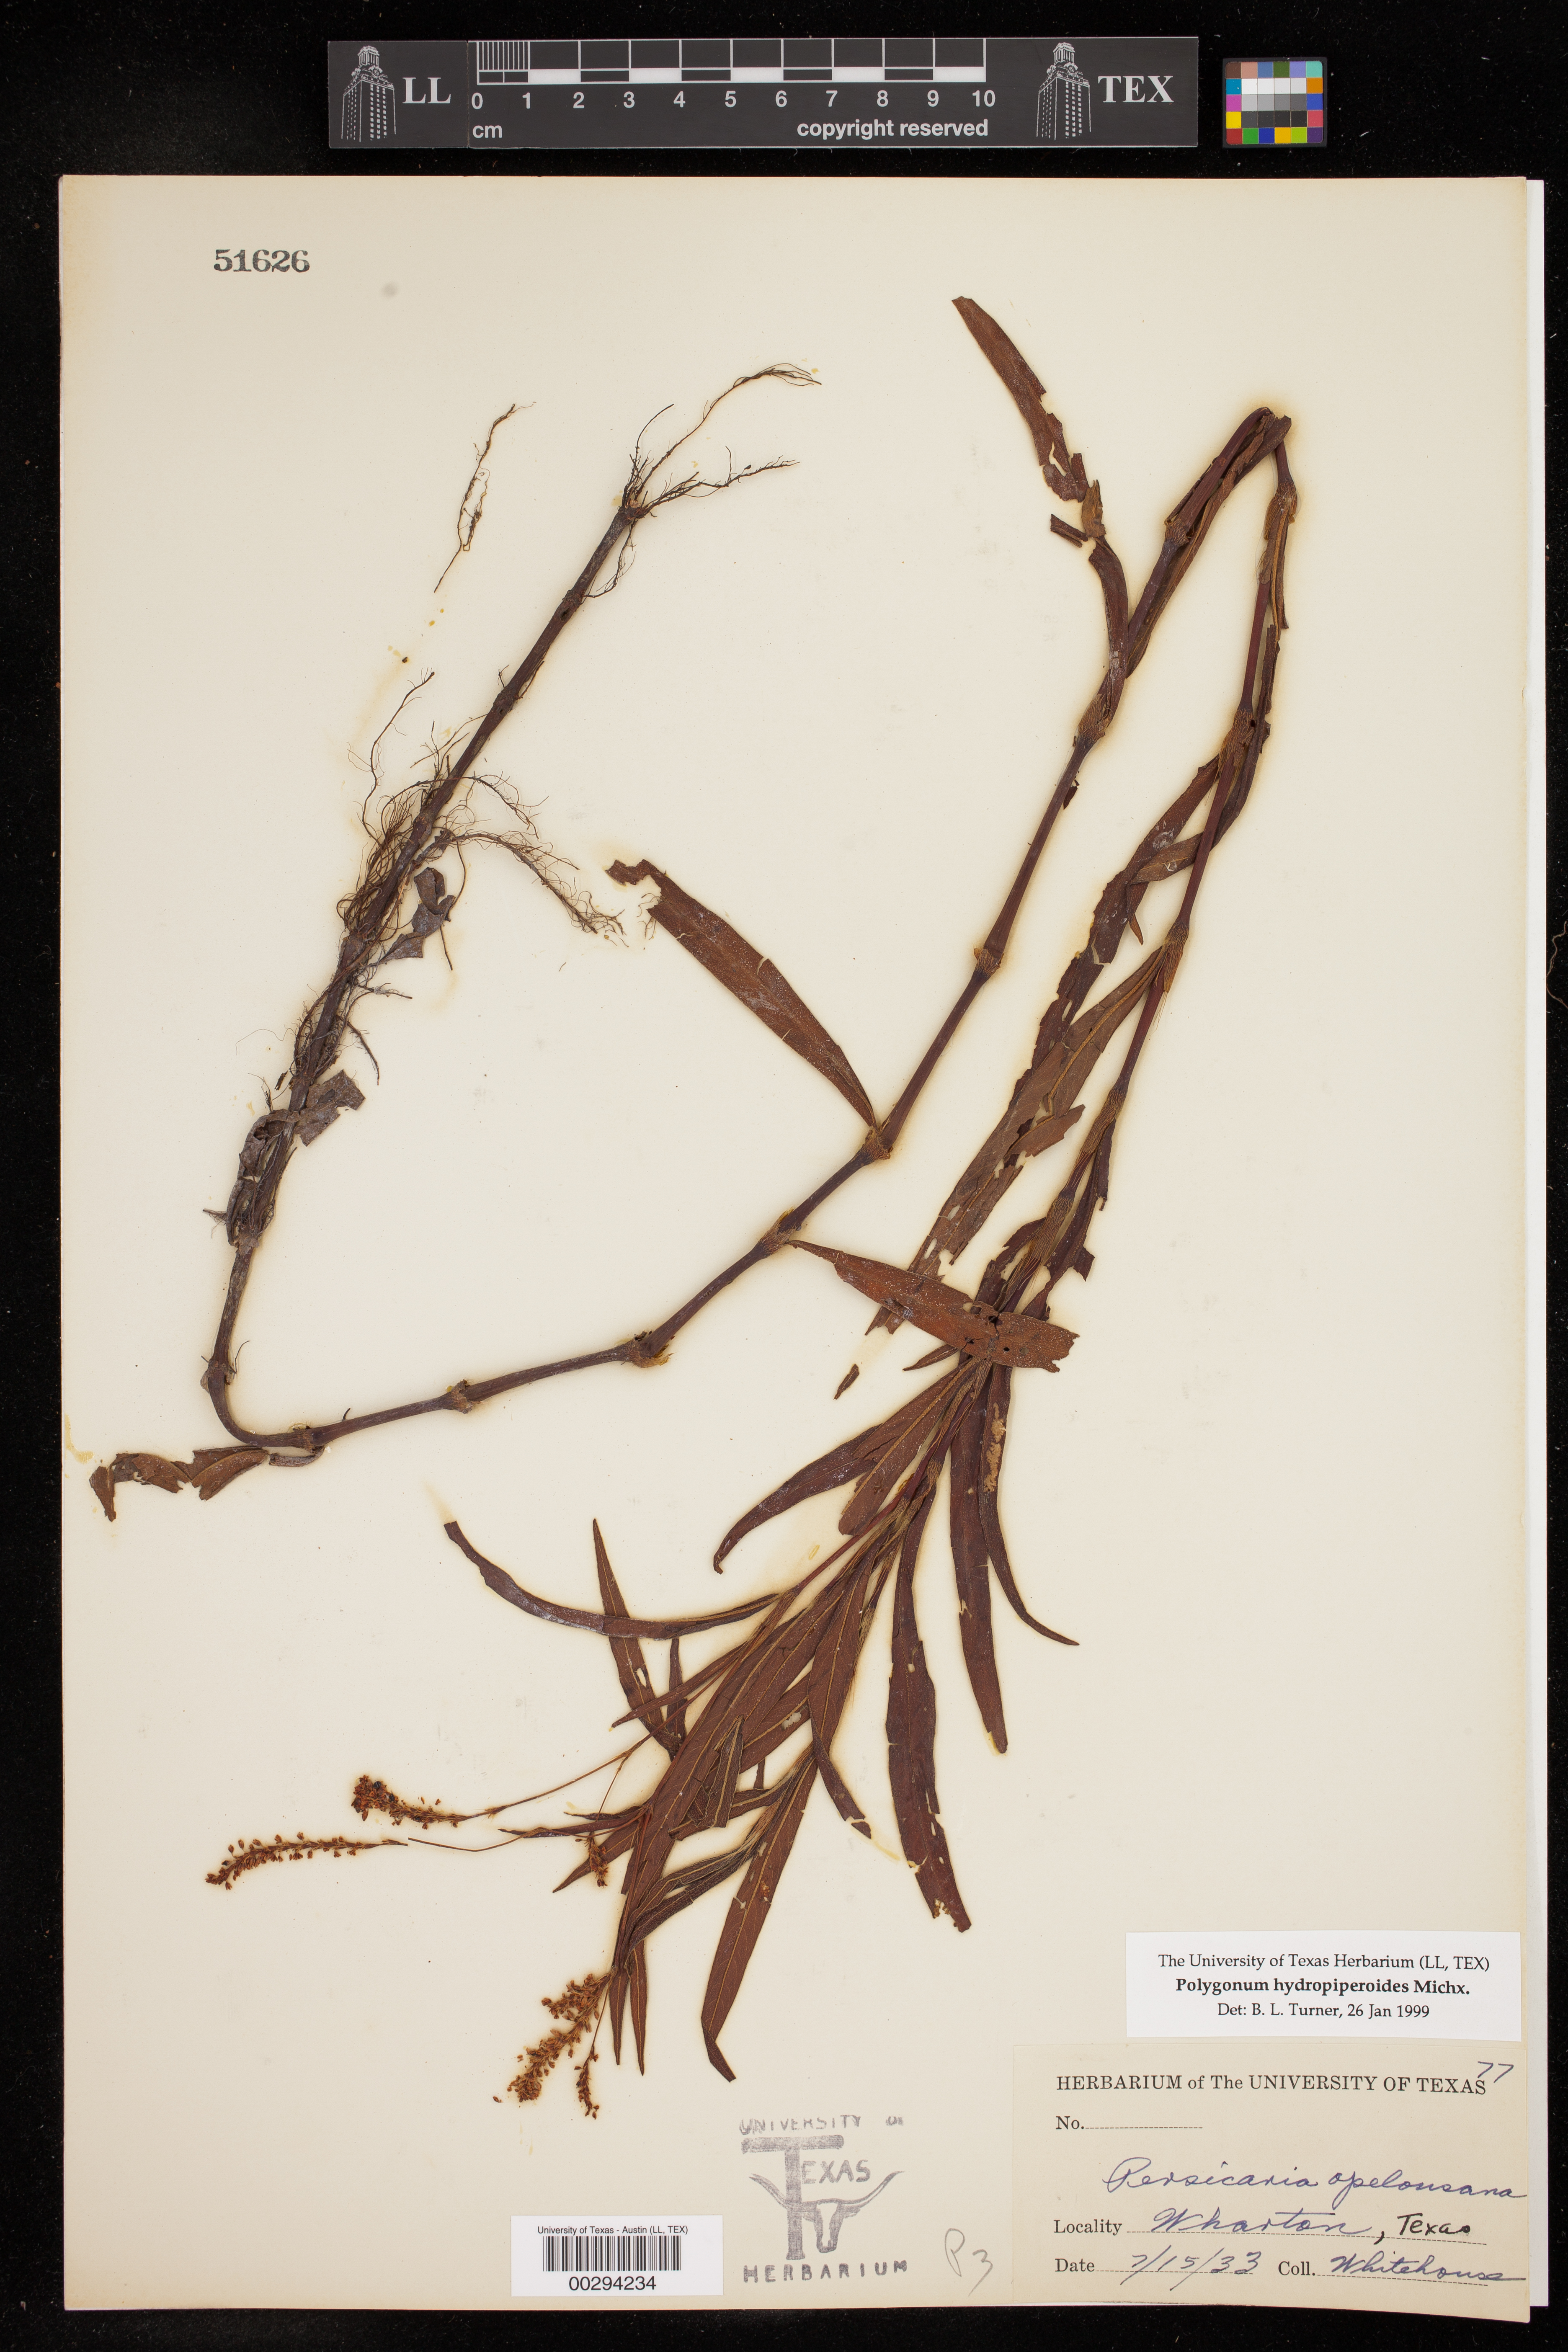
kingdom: Plantae
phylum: Tracheophyta
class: Magnoliopsida
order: Caryophyllales
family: Polygonaceae
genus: Persicaria
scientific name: Persicaria hydropiperoides
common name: Swamp smartweed
